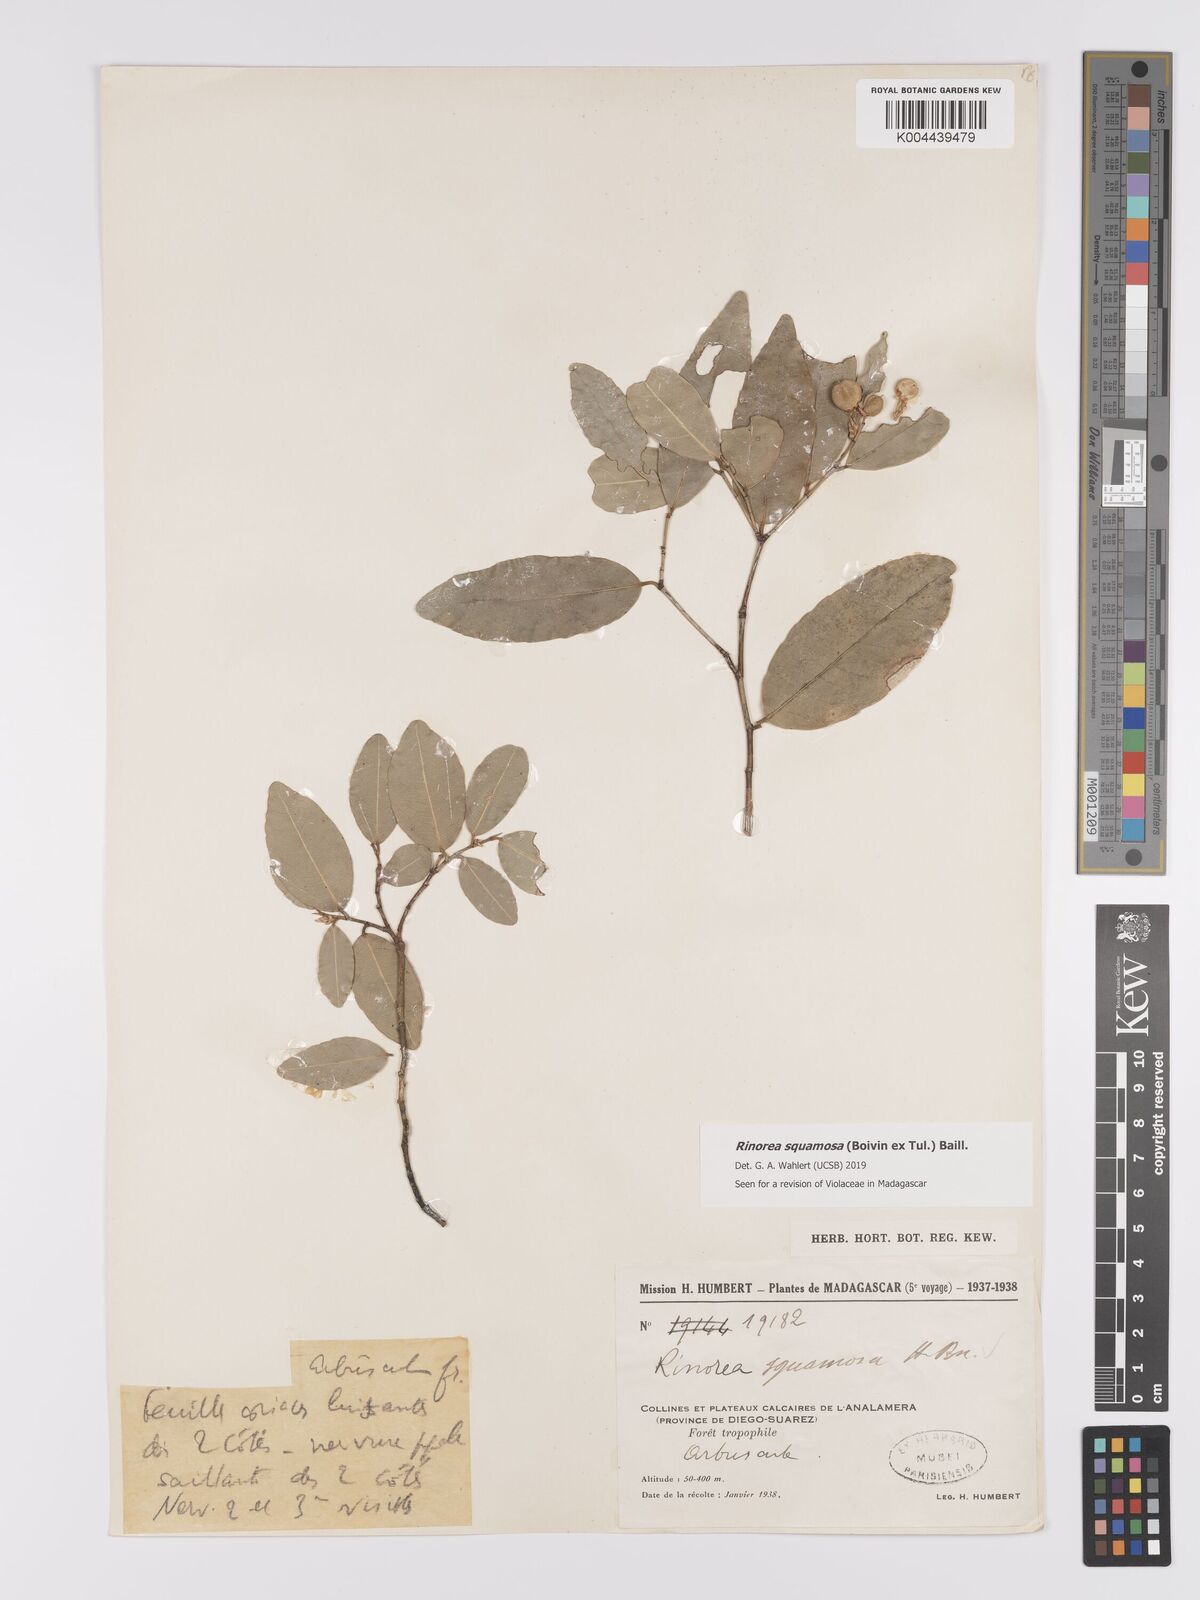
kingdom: Plantae
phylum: Tracheophyta
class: Magnoliopsida
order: Malpighiales
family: Violaceae
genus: Rinorea
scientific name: Rinorea squamosa
